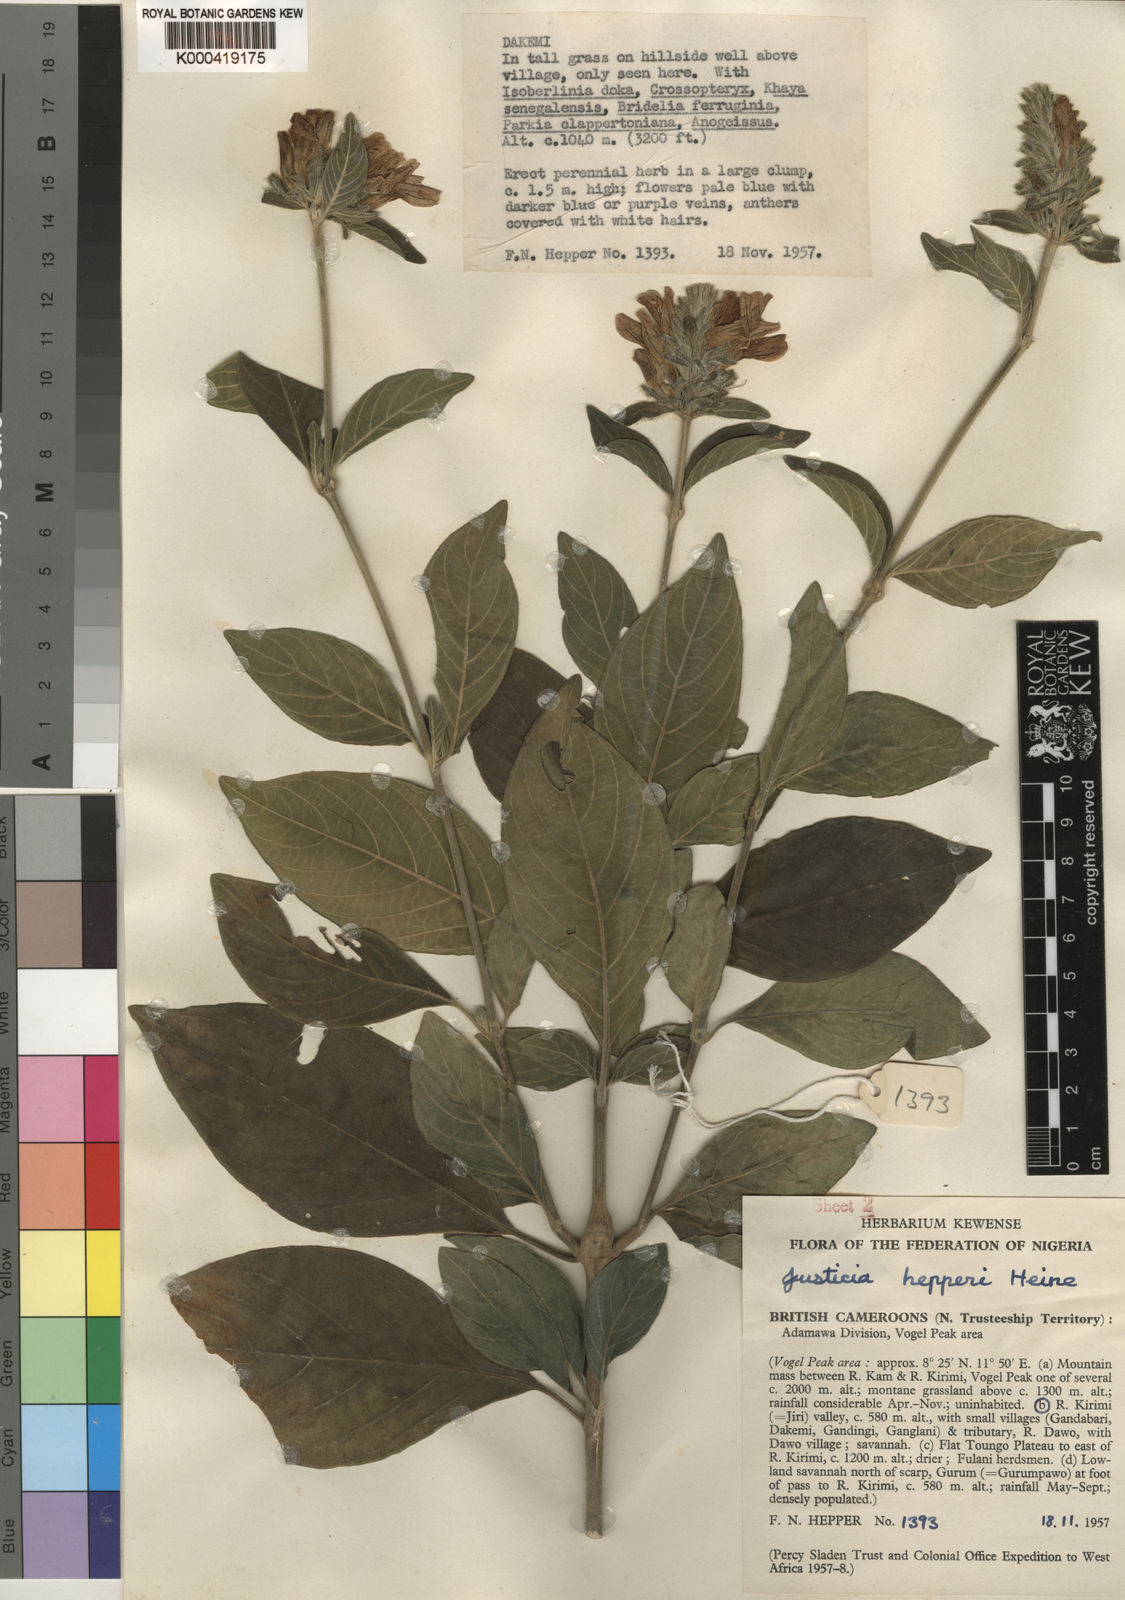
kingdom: Plantae
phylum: Tracheophyta
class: Magnoliopsida
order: Lamiales
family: Acanthaceae
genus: Justicia
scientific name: Justicia hepperi
